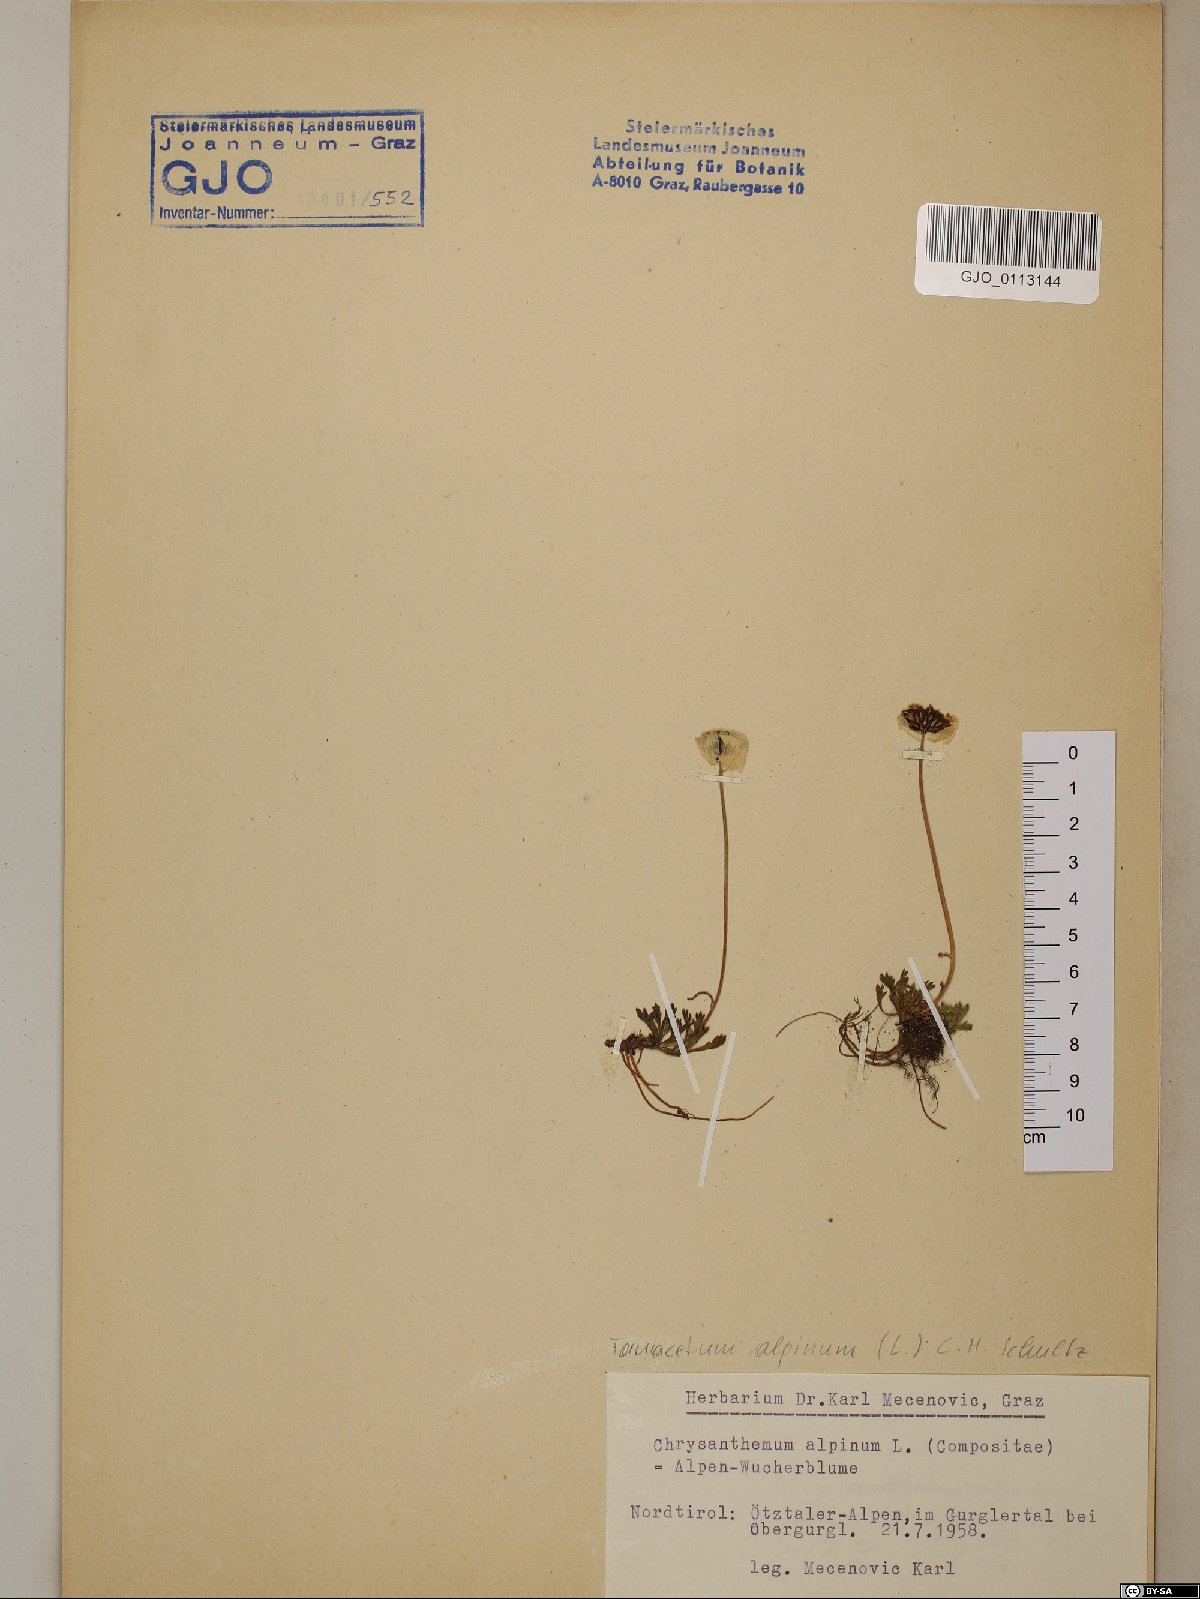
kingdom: Plantae
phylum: Tracheophyta
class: Magnoliopsida
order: Asterales
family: Asteraceae
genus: Leucanthemopsis
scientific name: Leucanthemopsis alpina
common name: Alpine moon daisy
